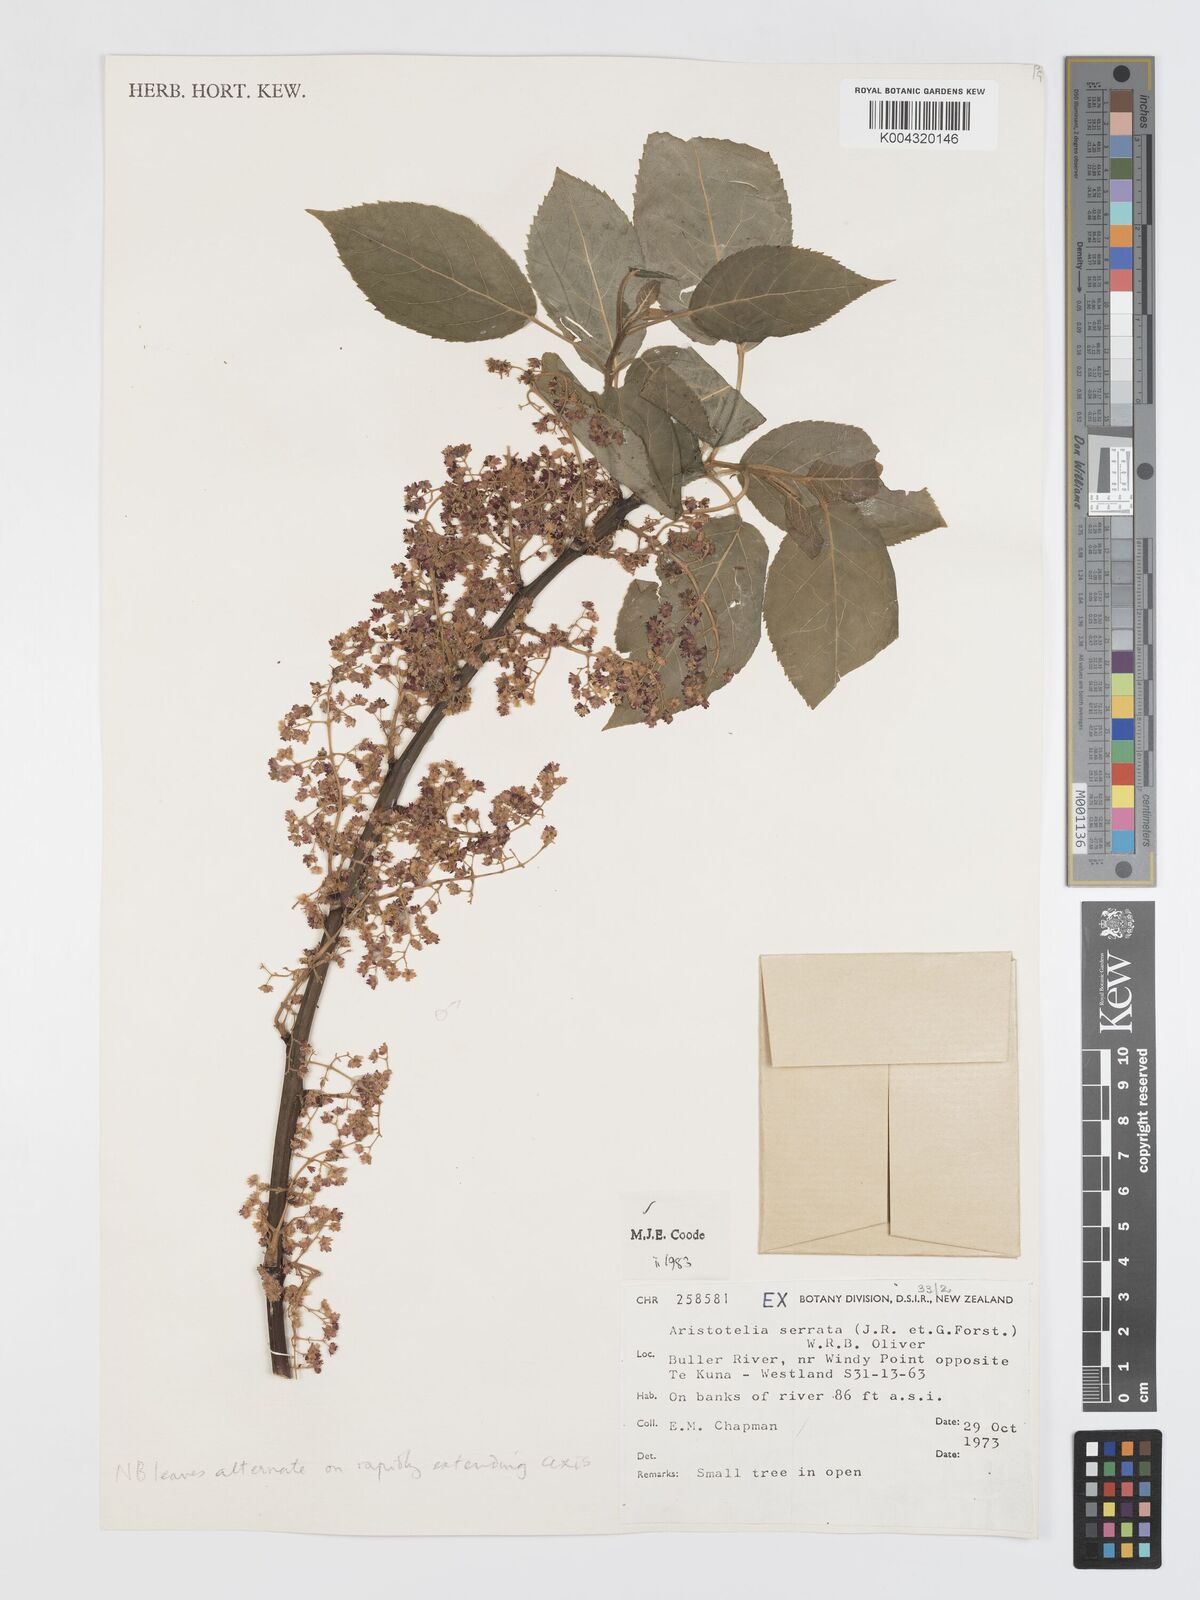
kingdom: Plantae
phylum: Tracheophyta
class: Magnoliopsida
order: Oxalidales
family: Elaeocarpaceae
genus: Aristotelia
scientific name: Aristotelia serrata
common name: New zealand wineberry
